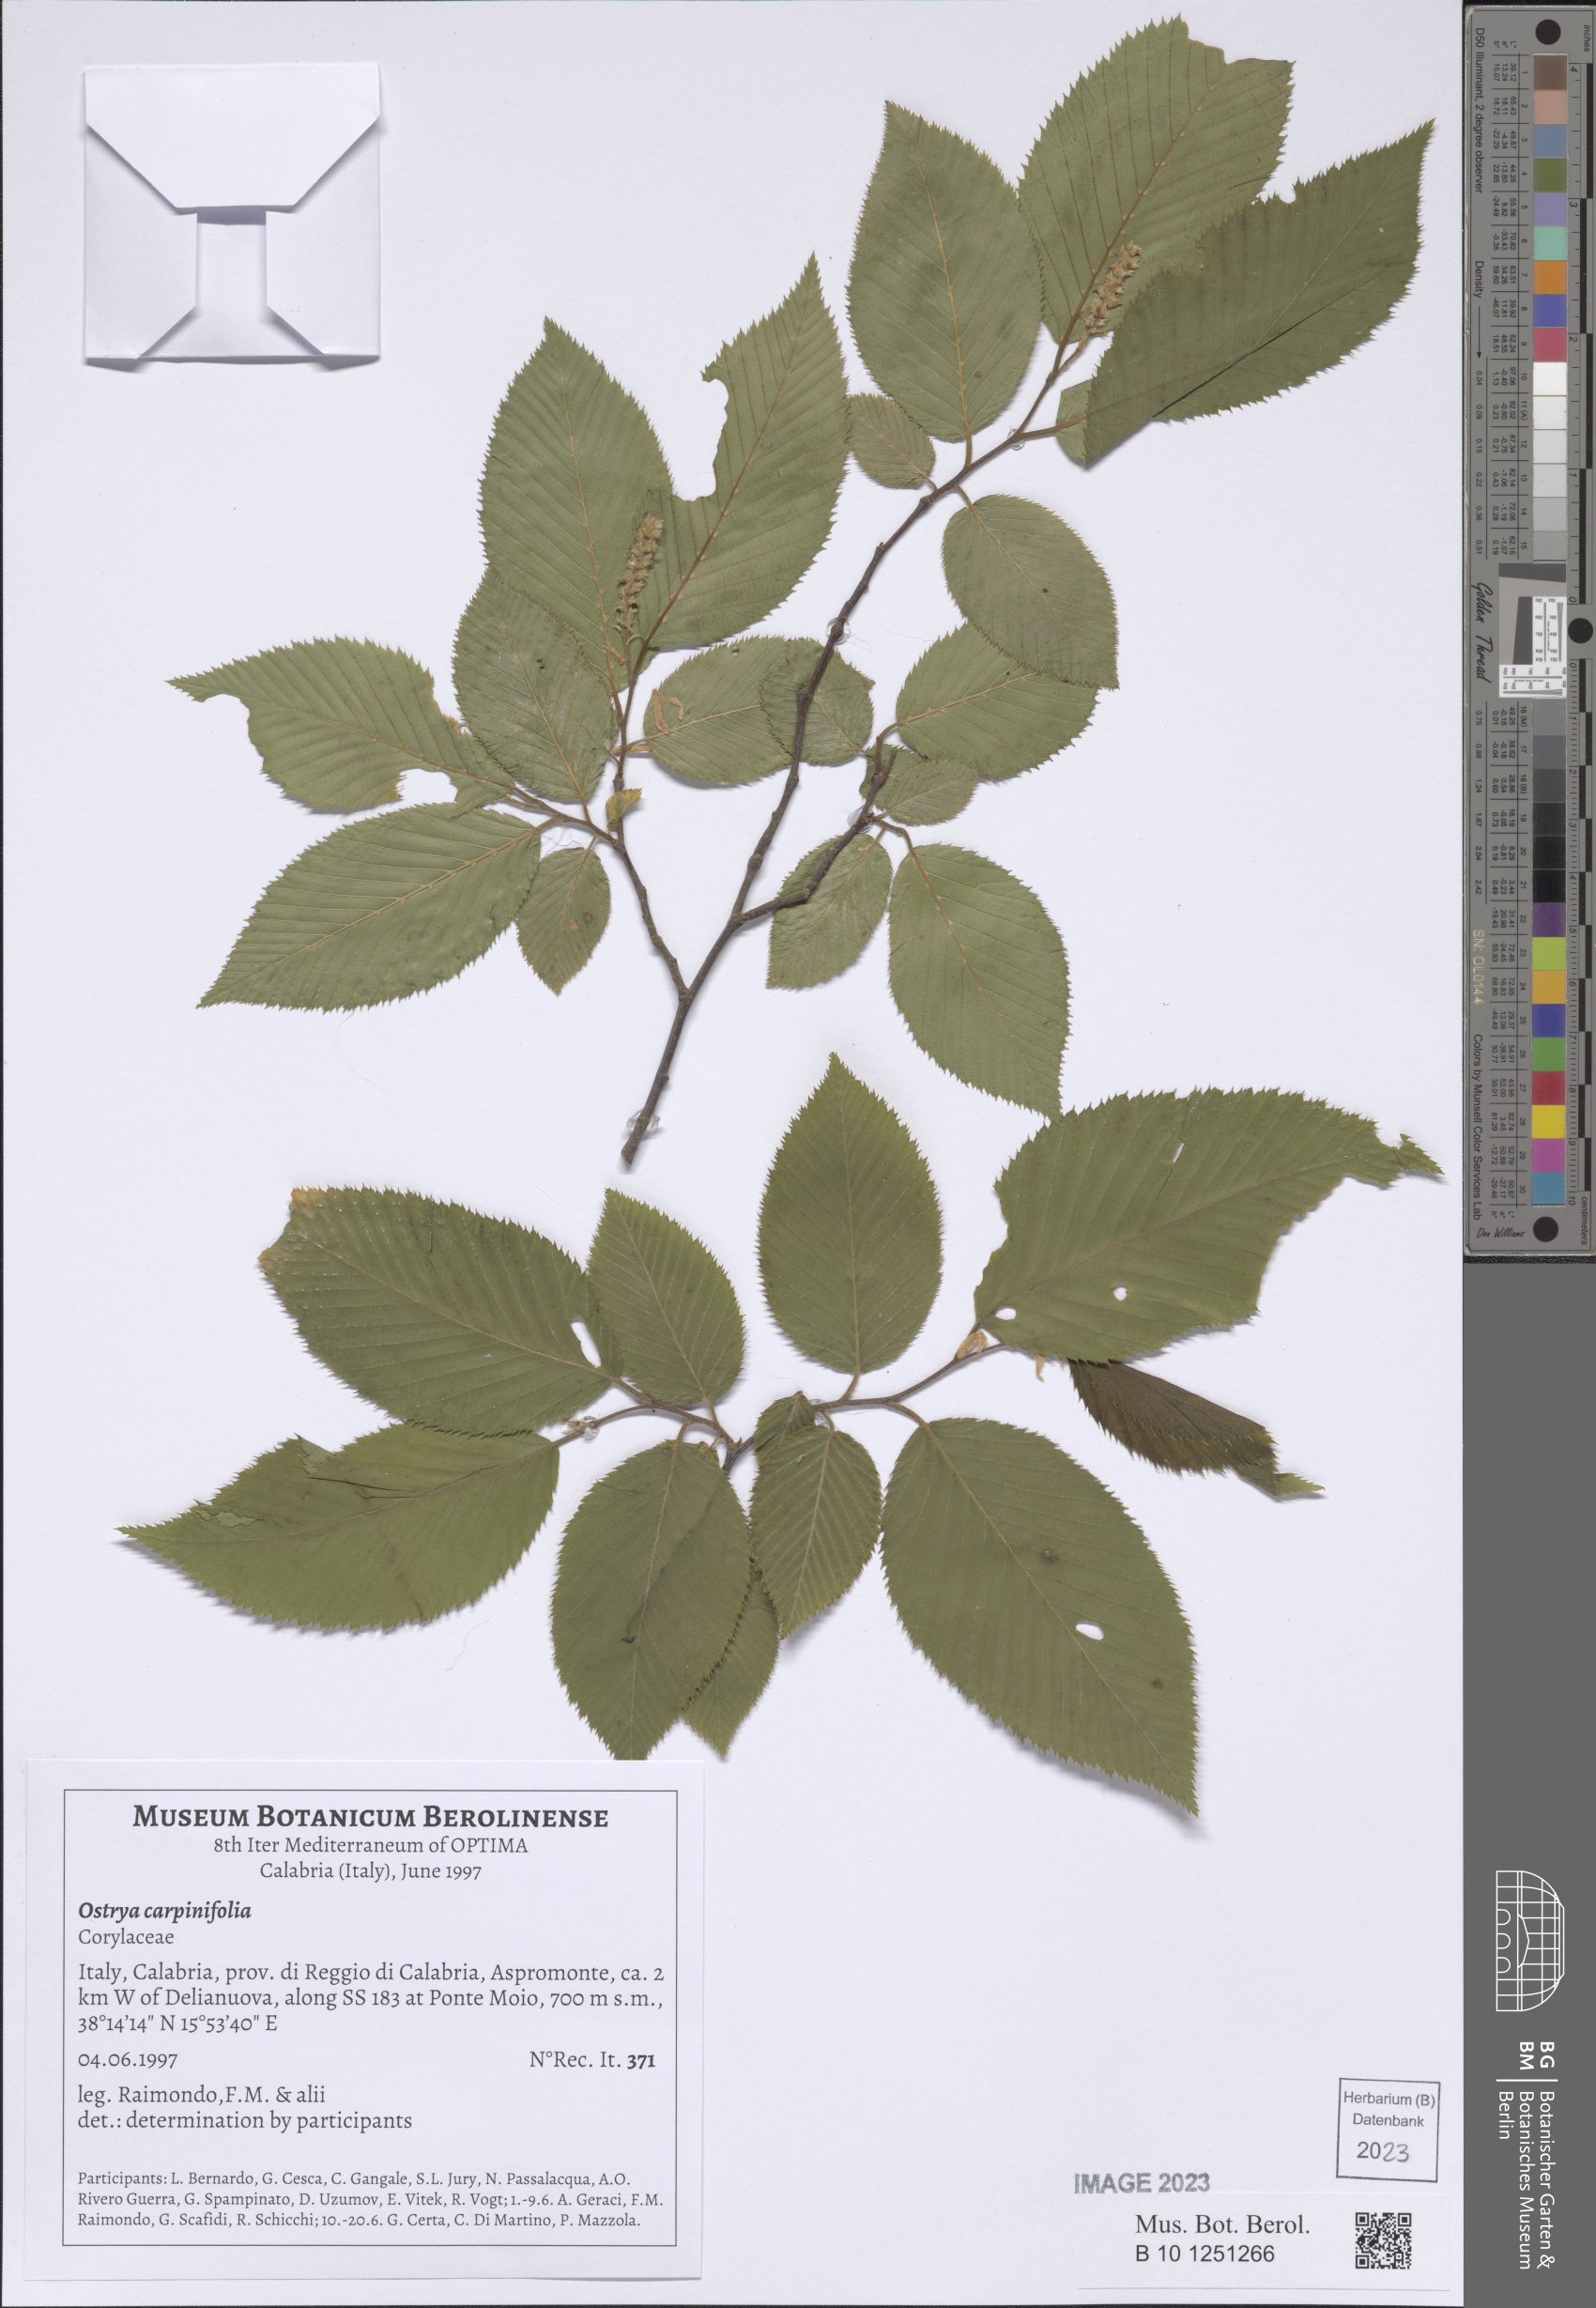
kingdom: Plantae
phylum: Tracheophyta
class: Magnoliopsida
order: Fagales
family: Betulaceae
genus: Ostrya
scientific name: Ostrya carpinifolia
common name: European hop-hornbeam
